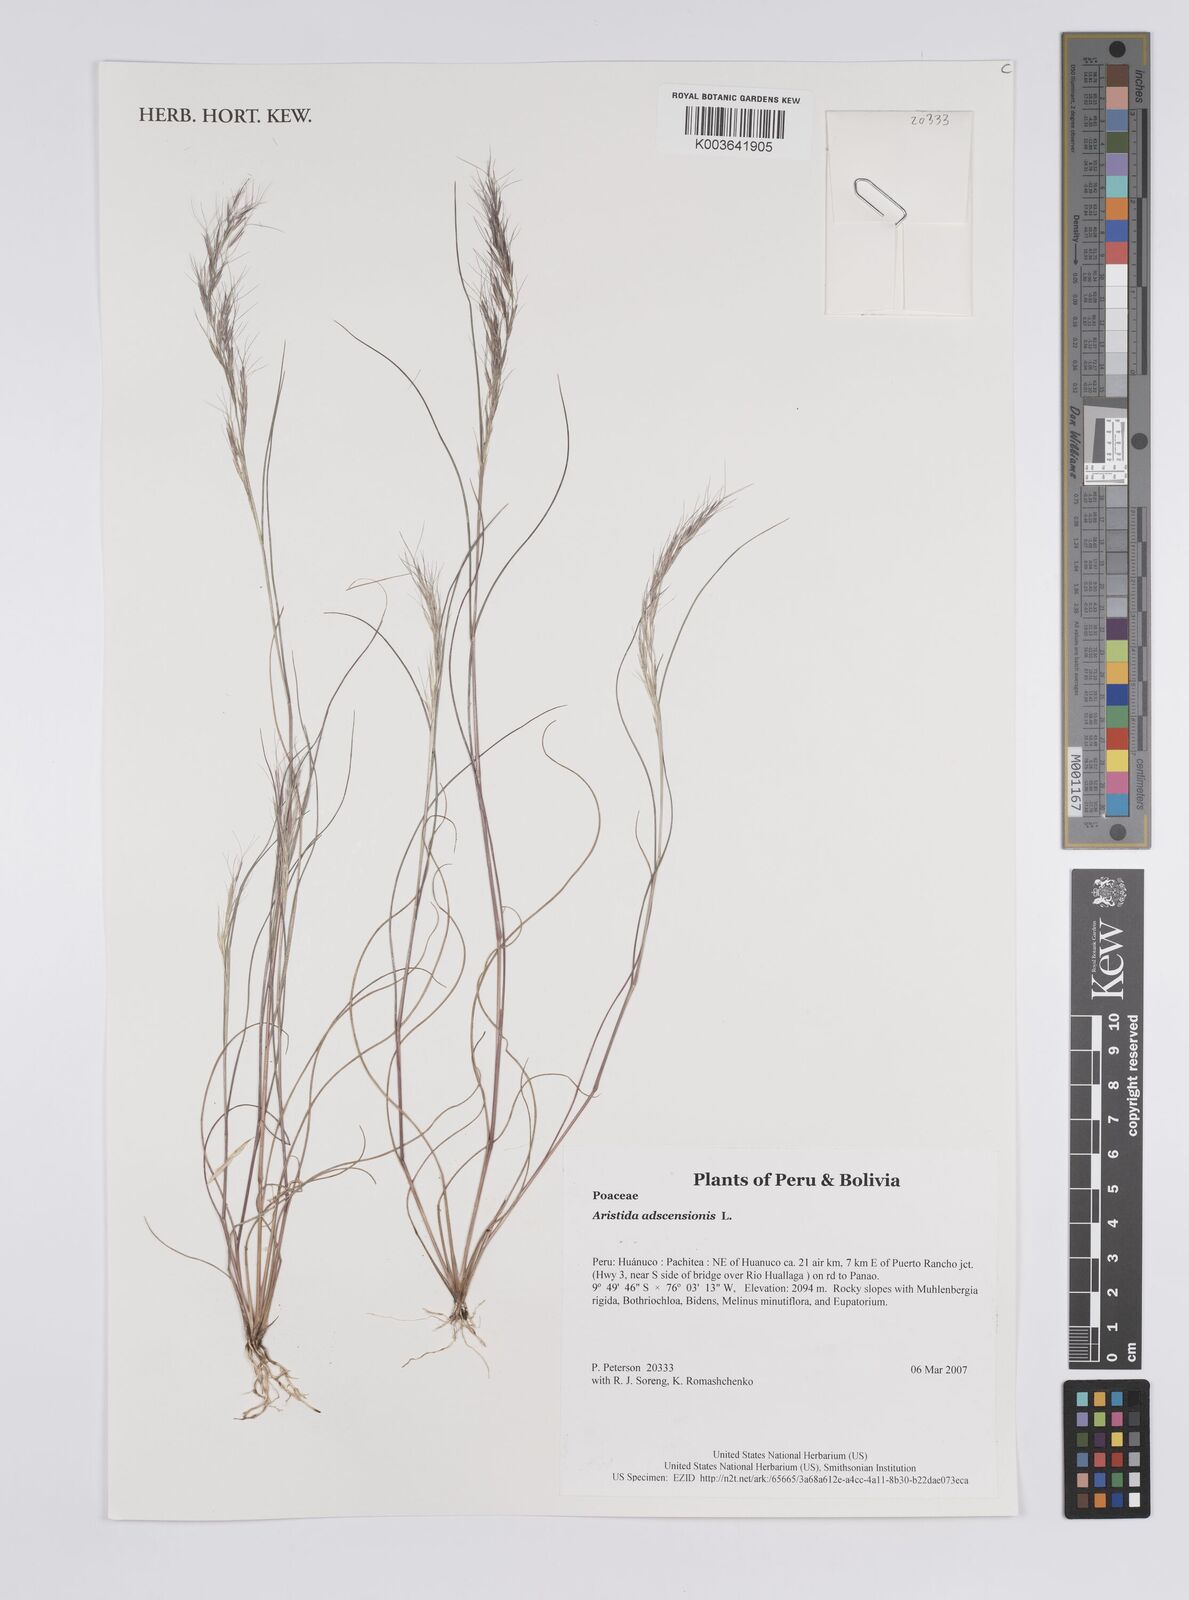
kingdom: Plantae
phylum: Tracheophyta
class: Liliopsida
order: Poales
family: Poaceae
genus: Aristida
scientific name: Aristida adscensionis
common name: Sixweeks threeawn
